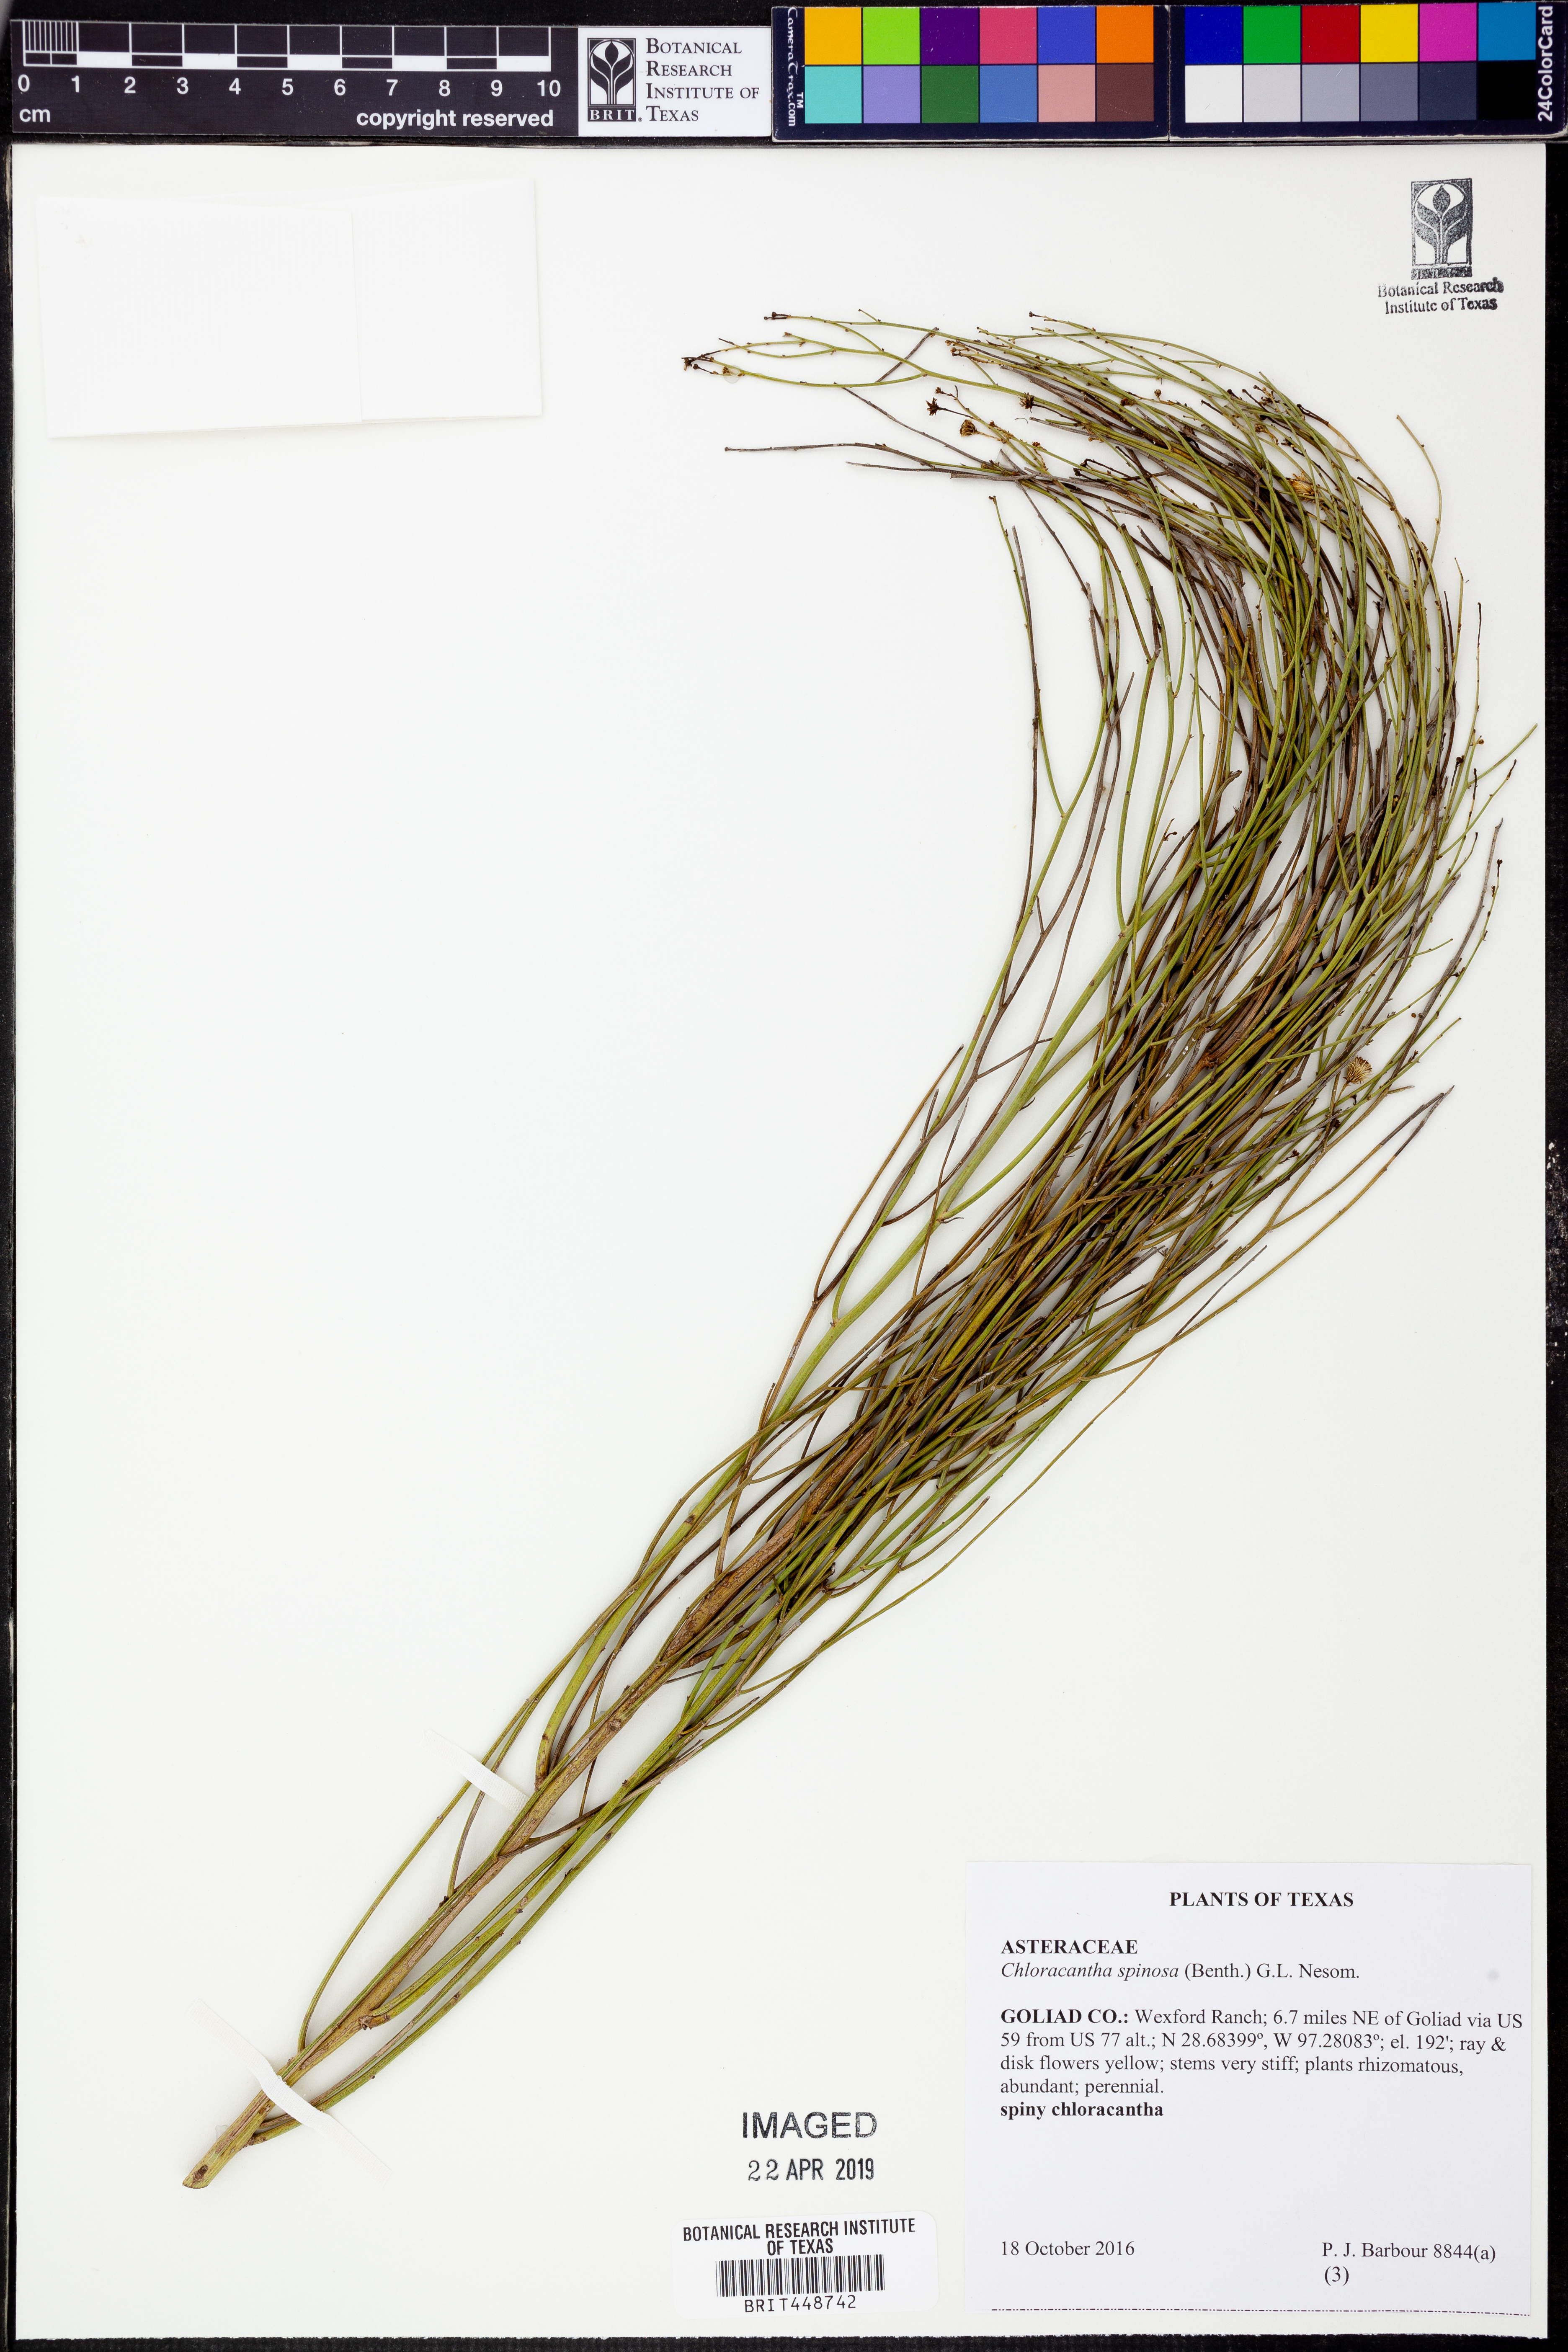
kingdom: Plantae
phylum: Tracheophyta
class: Magnoliopsida
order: Asterales
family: Asteraceae
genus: Chloracantha
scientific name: Chloracantha spinosa
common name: Mexican devilweed
